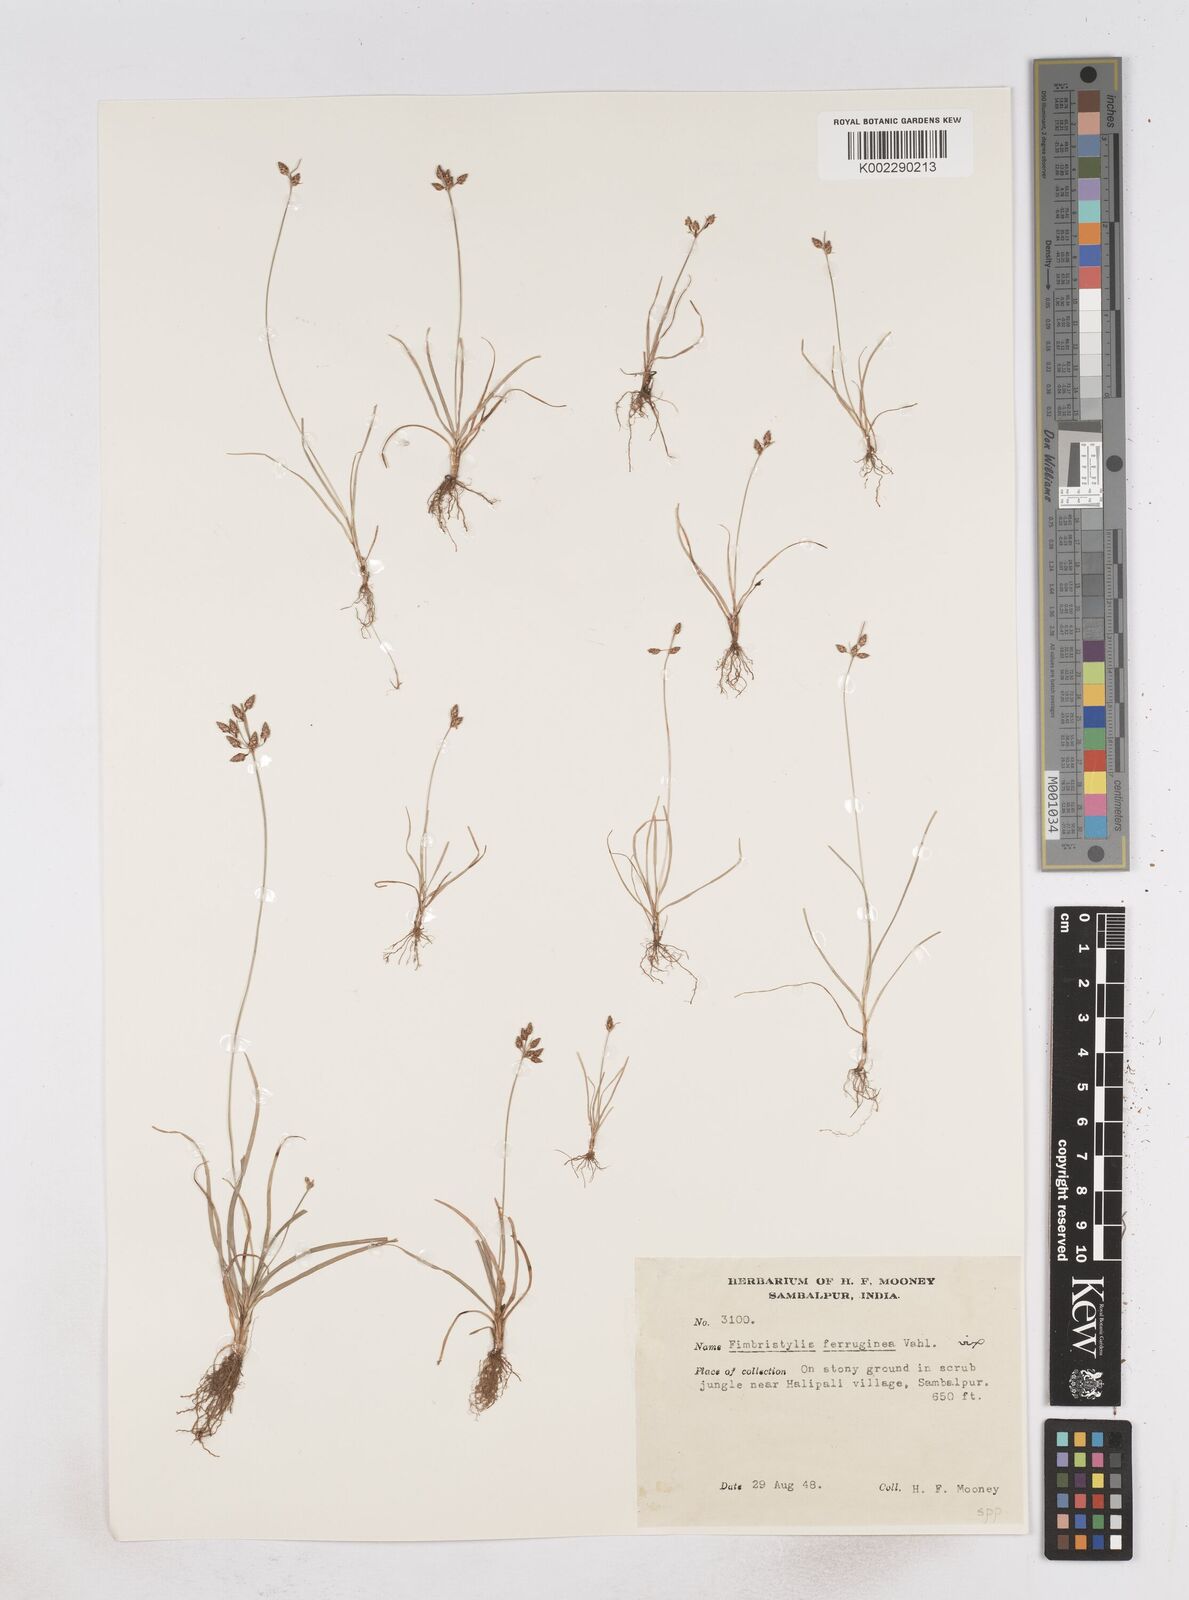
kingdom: Plantae
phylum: Tracheophyta
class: Liliopsida
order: Poales
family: Cyperaceae
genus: Fimbristylis
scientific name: Fimbristylis
